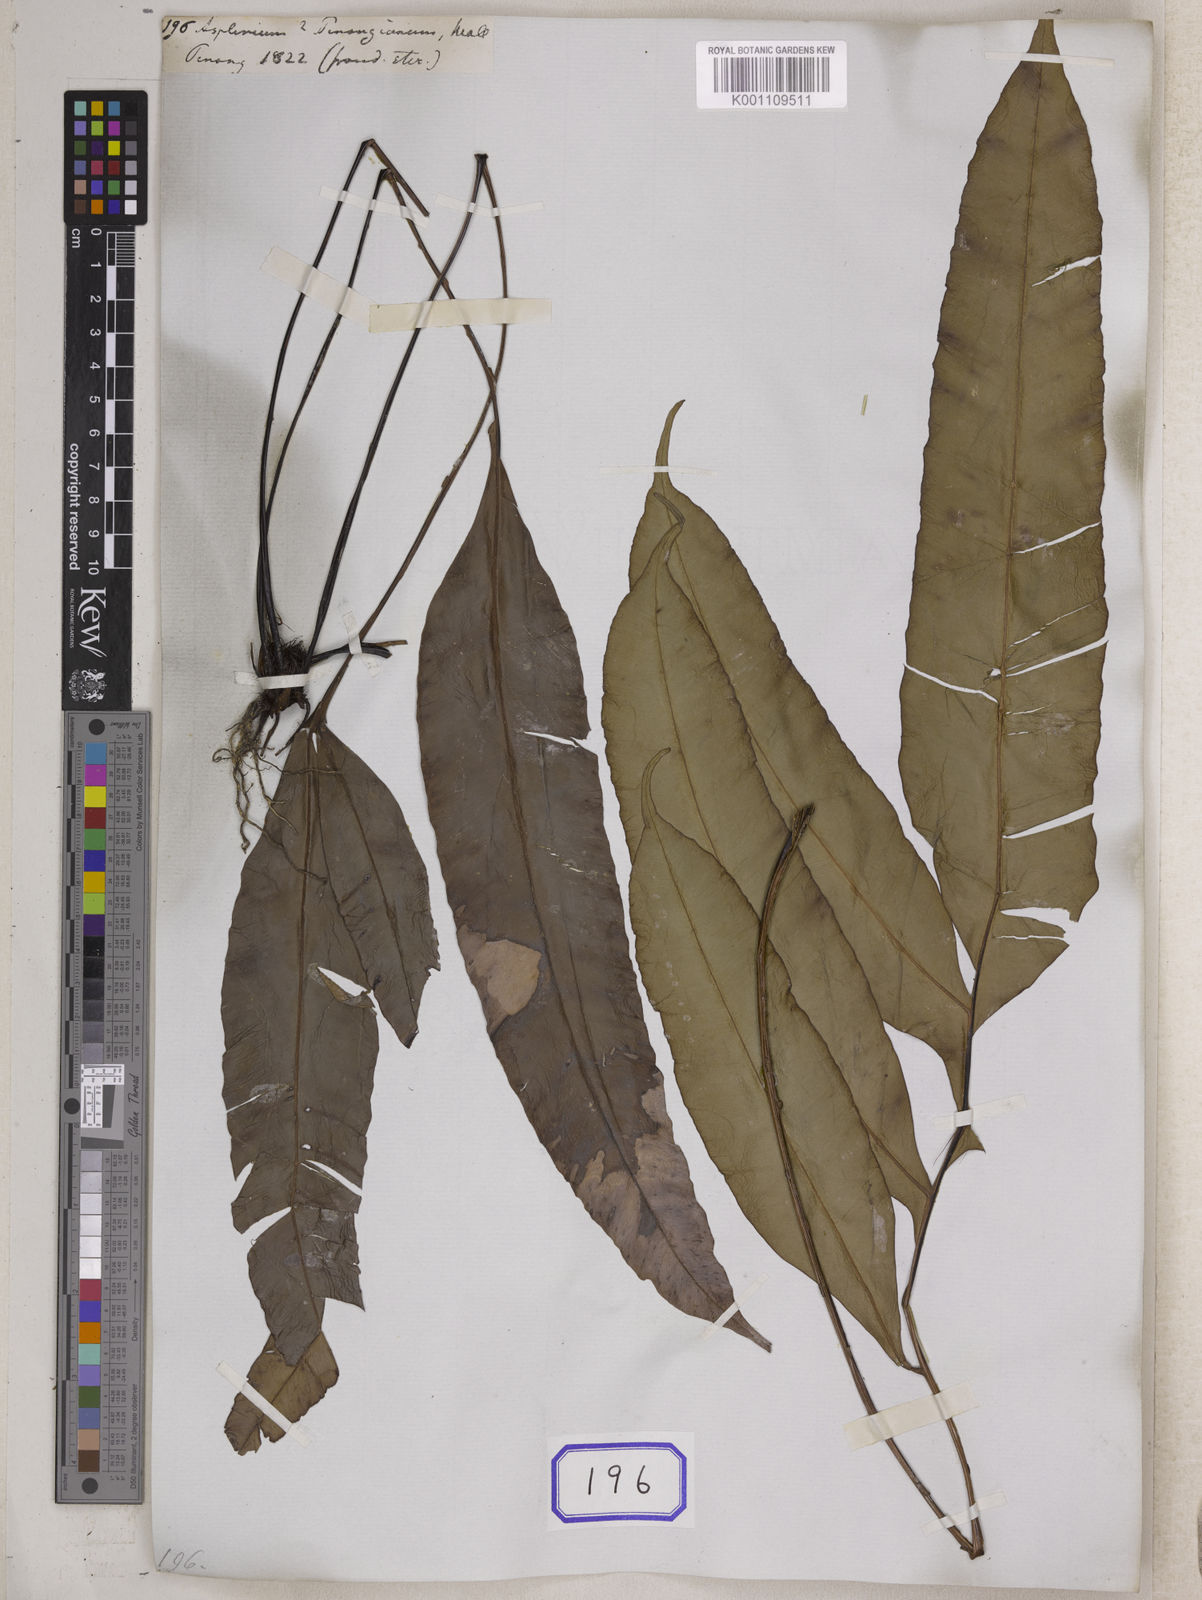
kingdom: Plantae
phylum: Tracheophyta
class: Polypodiopsida
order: Polypodiales
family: Blechnaceae
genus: Blechnopsis
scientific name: Blechnopsis finlaysoniana
